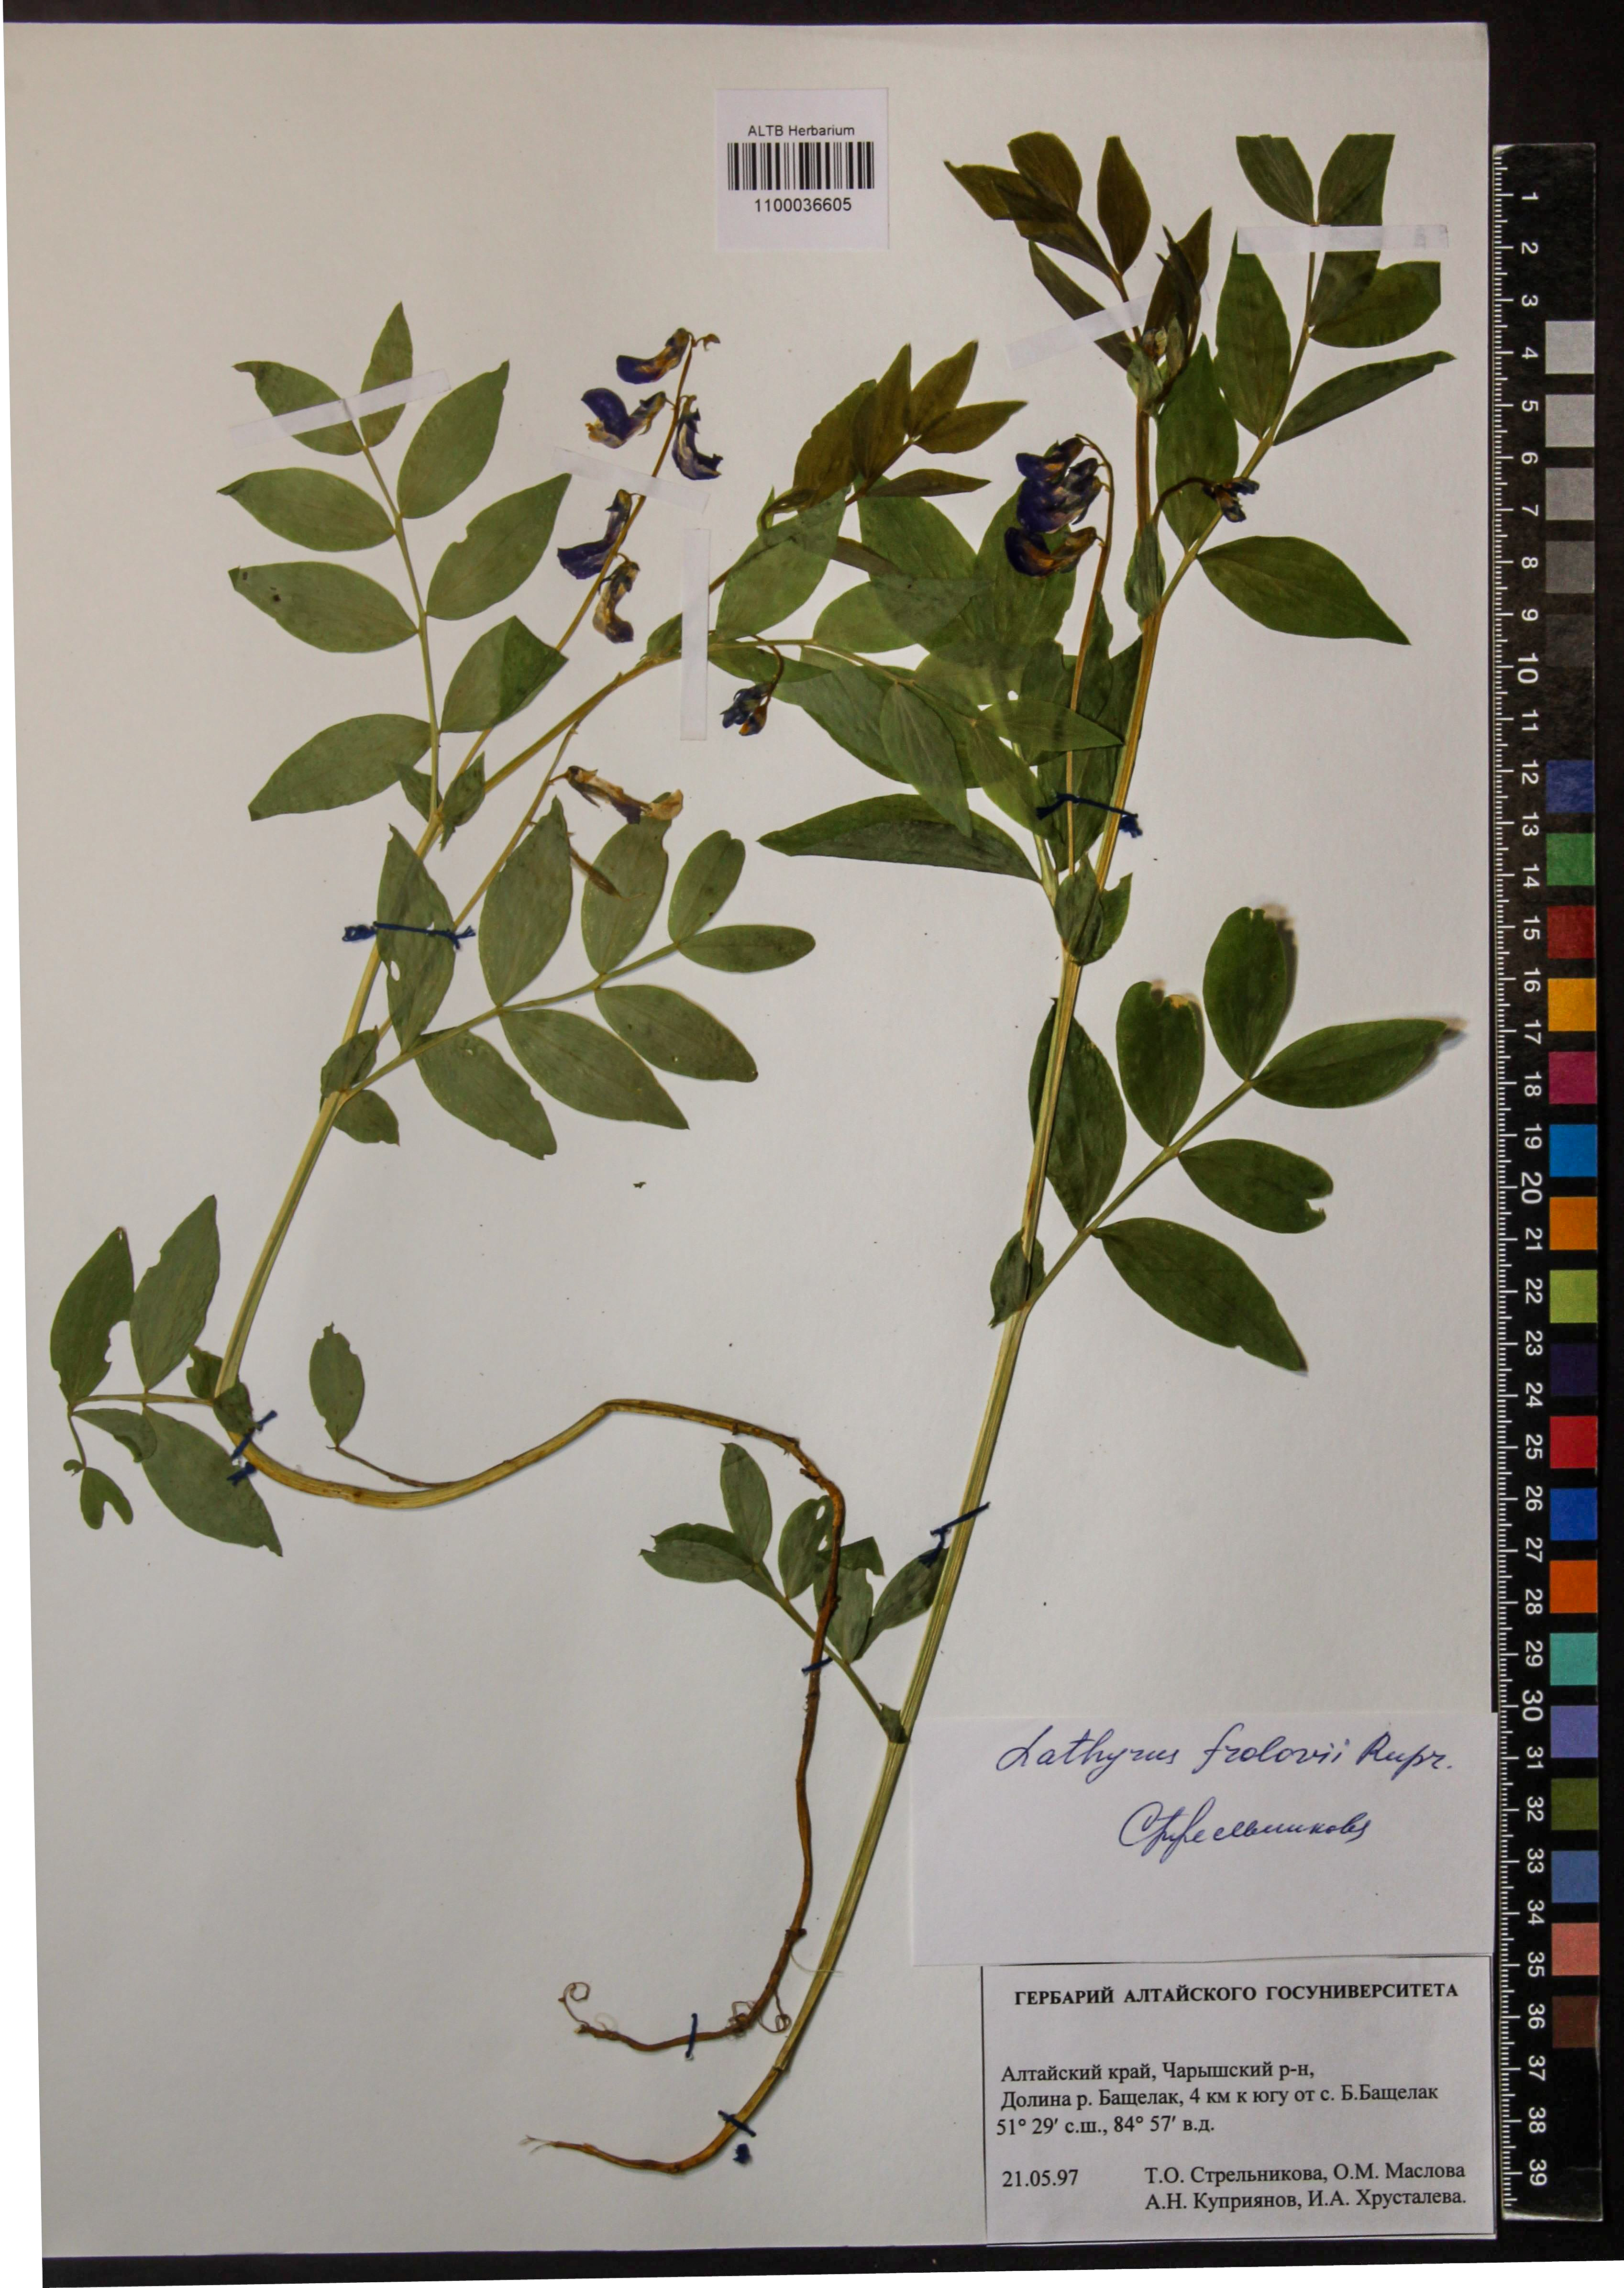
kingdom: Plantae
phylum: Tracheophyta
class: Magnoliopsida
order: Fabales
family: Fabaceae
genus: Lathyrus
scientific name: Lathyrus frolovii
